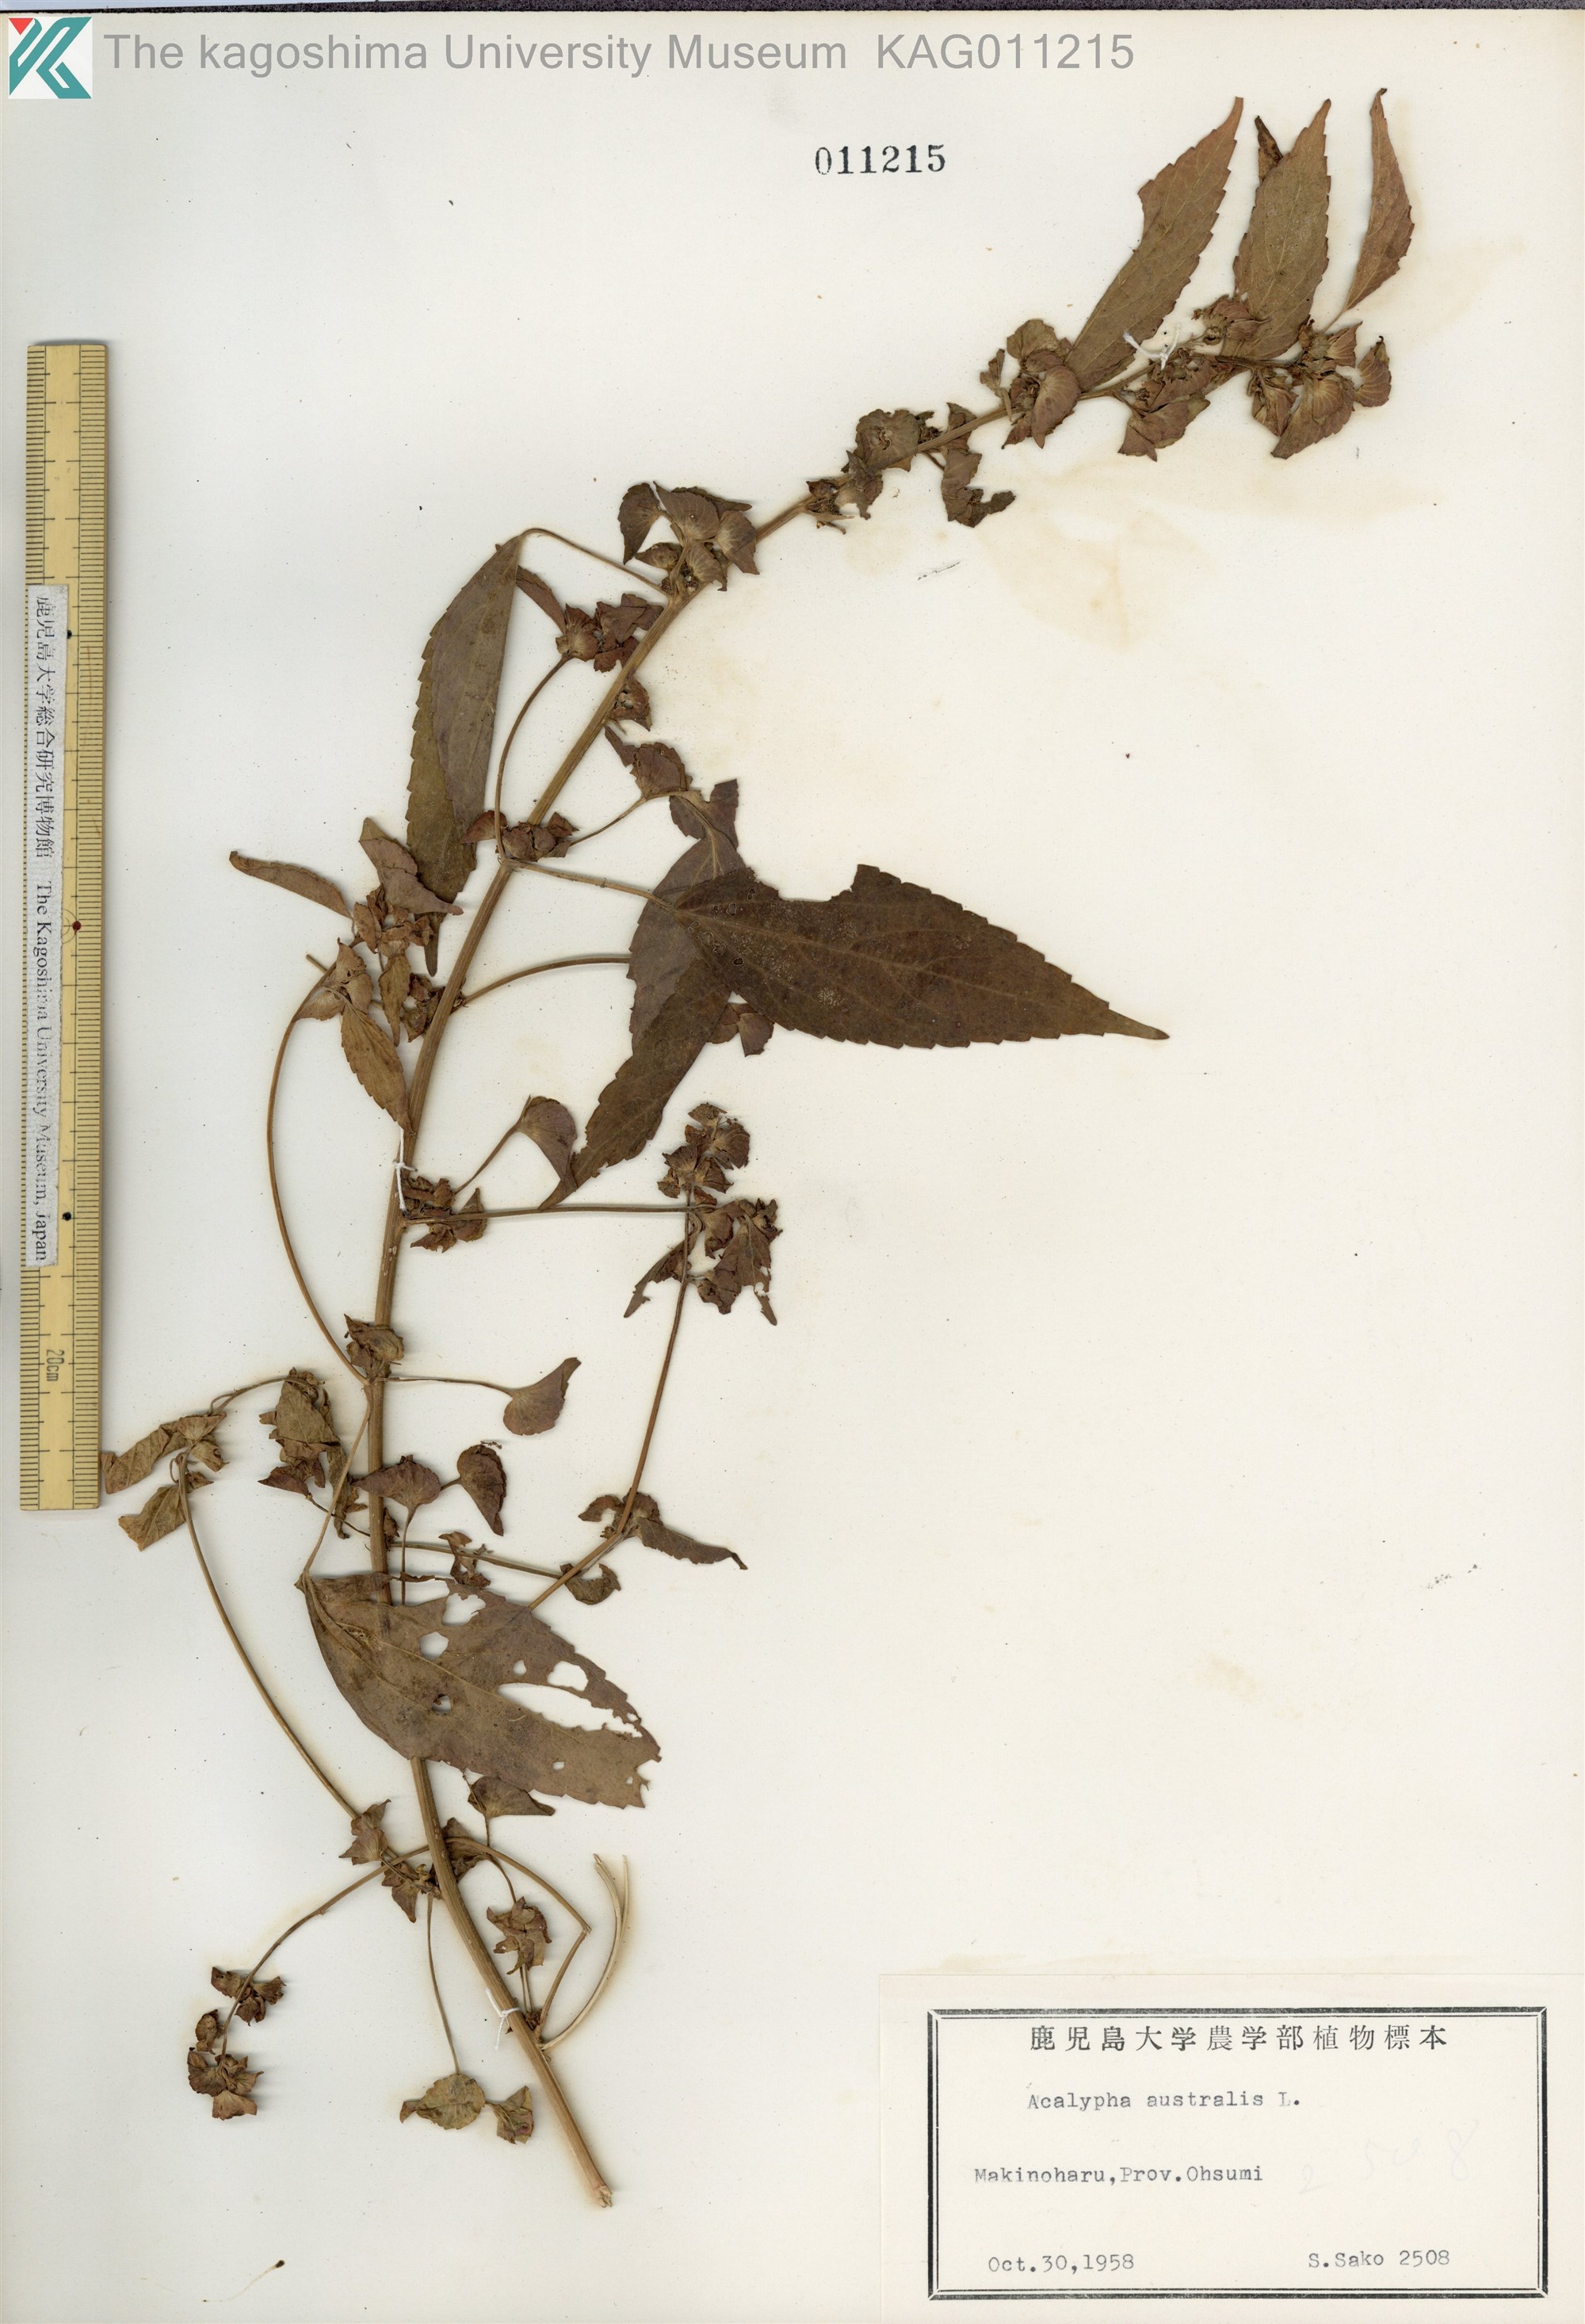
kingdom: Plantae
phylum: Tracheophyta
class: Magnoliopsida
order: Malpighiales
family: Euphorbiaceae
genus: Acalypha
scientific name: Acalypha australis
